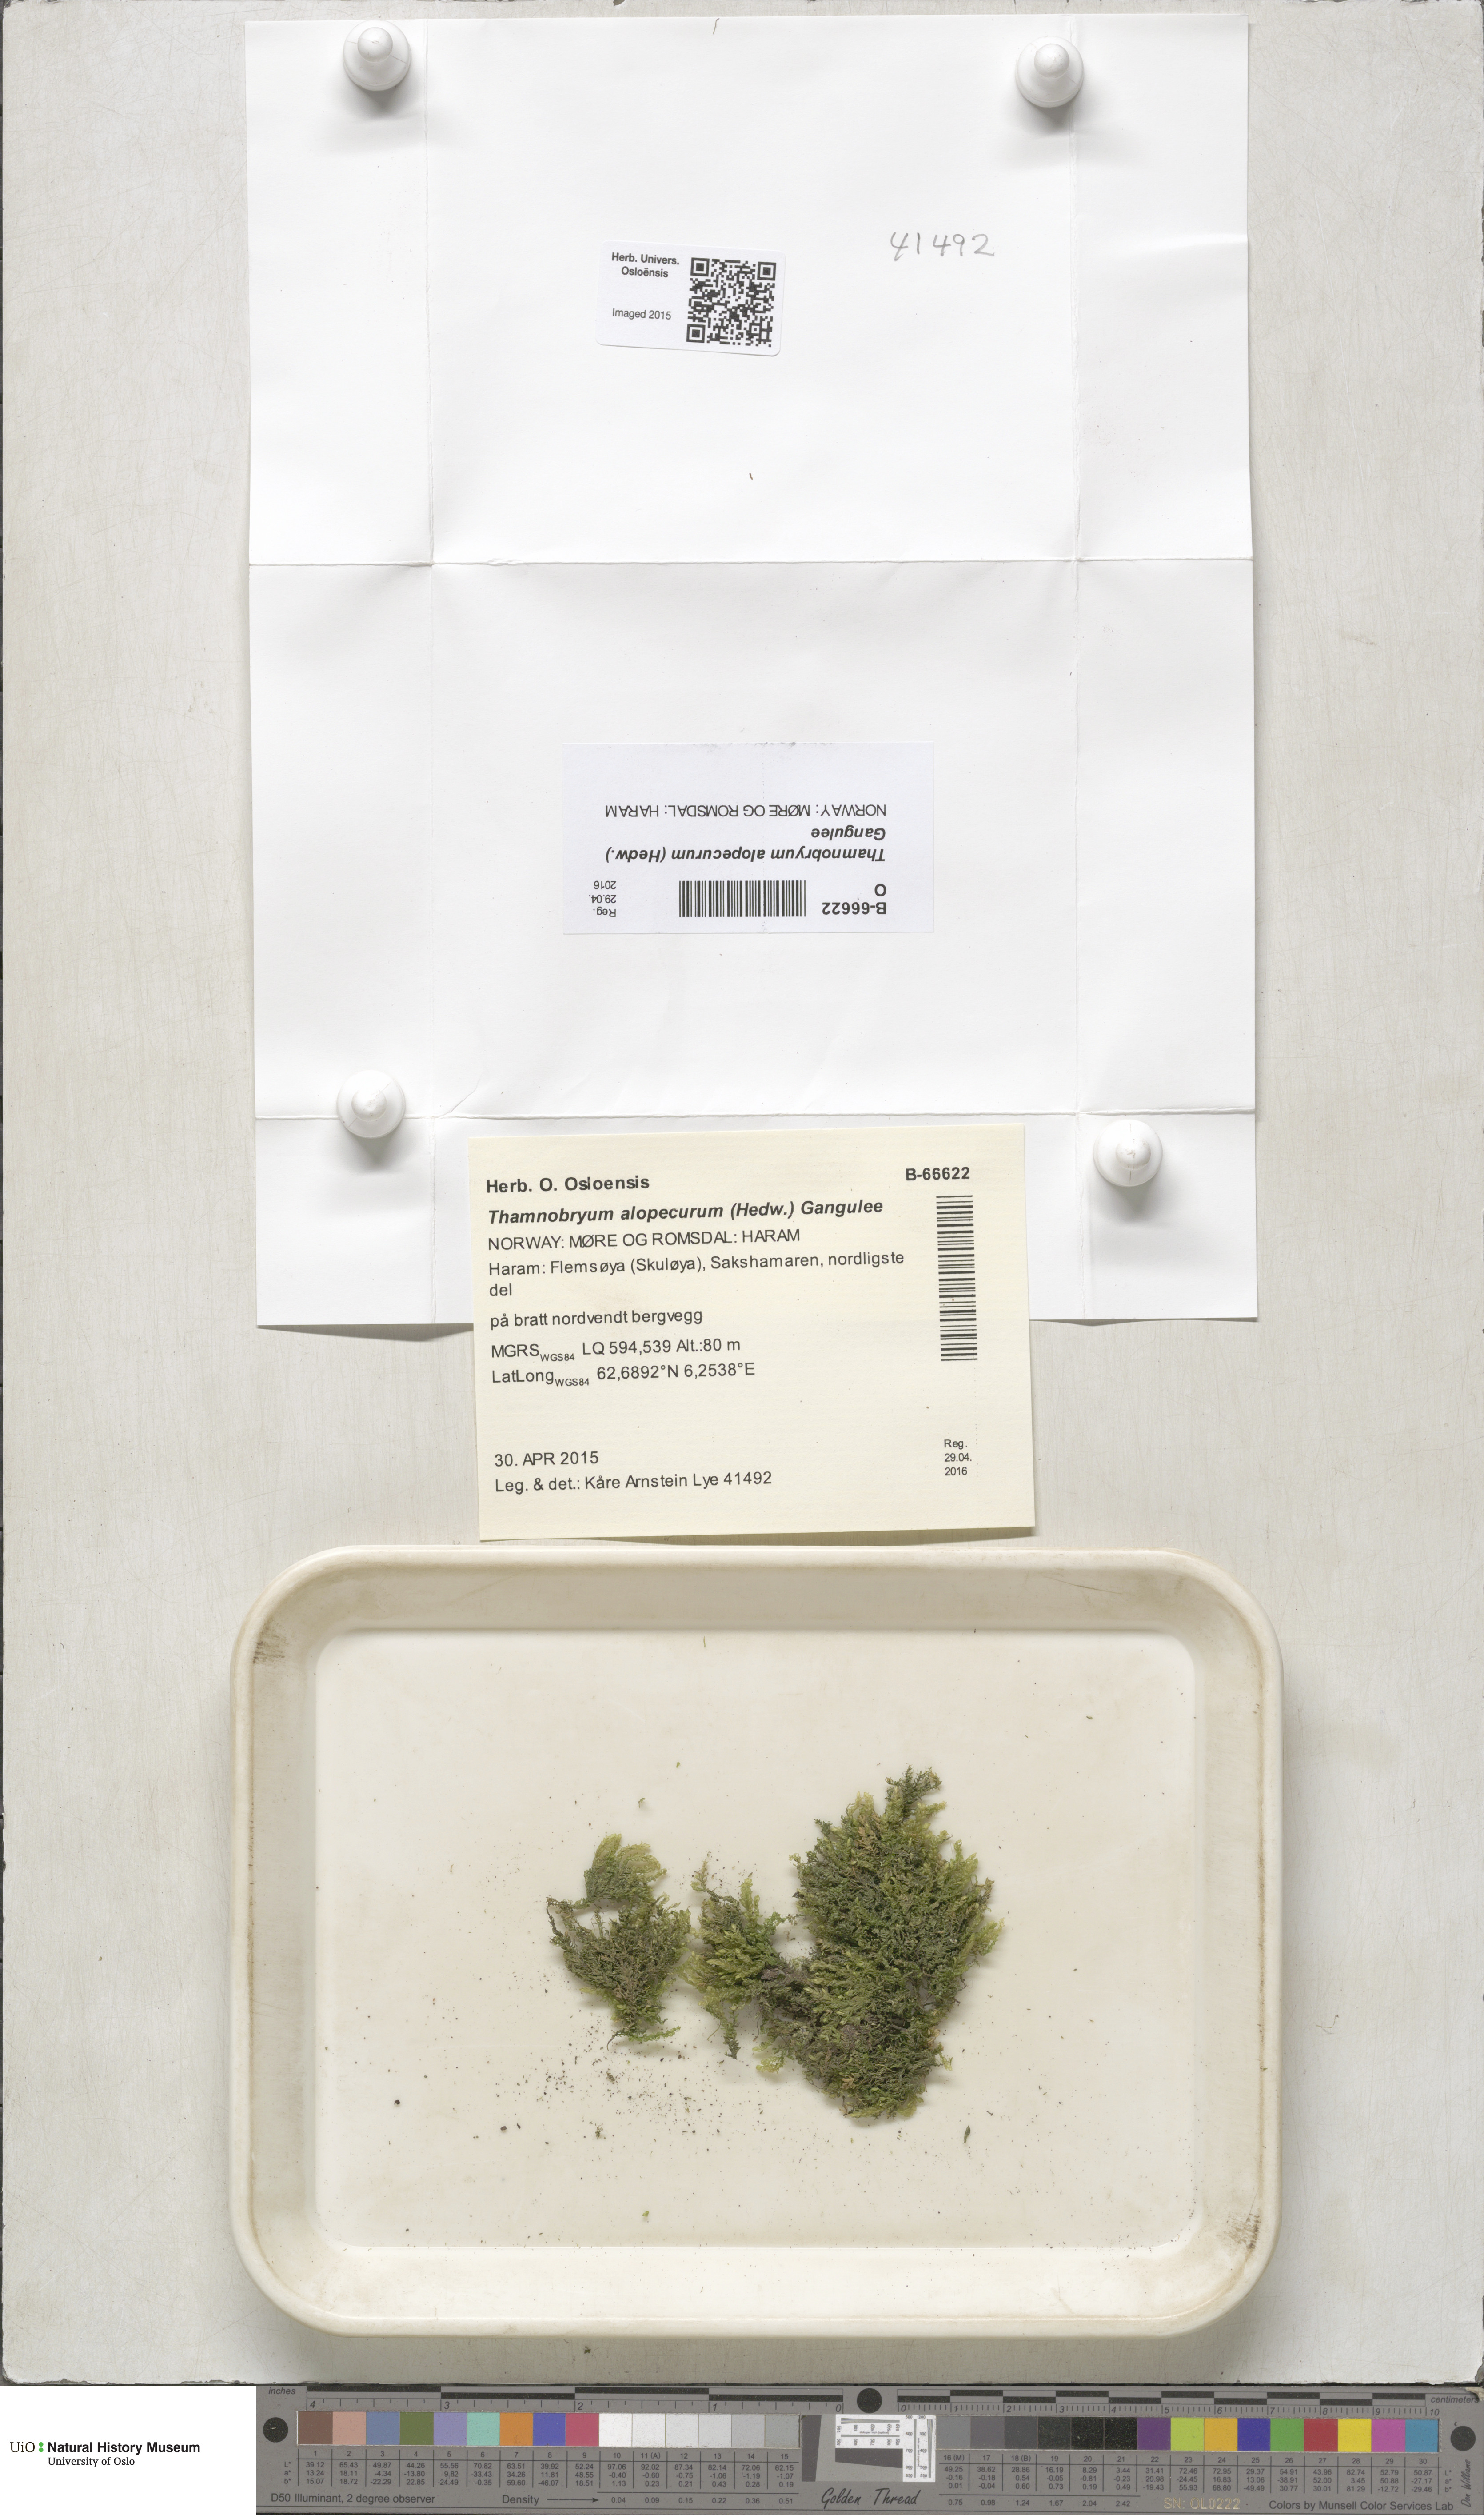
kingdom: Plantae
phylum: Bryophyta
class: Bryopsida
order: Hypnales
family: Neckeraceae
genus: Thamnobryum
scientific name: Thamnobryum alopecurum
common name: Fox-tail feather-moss
